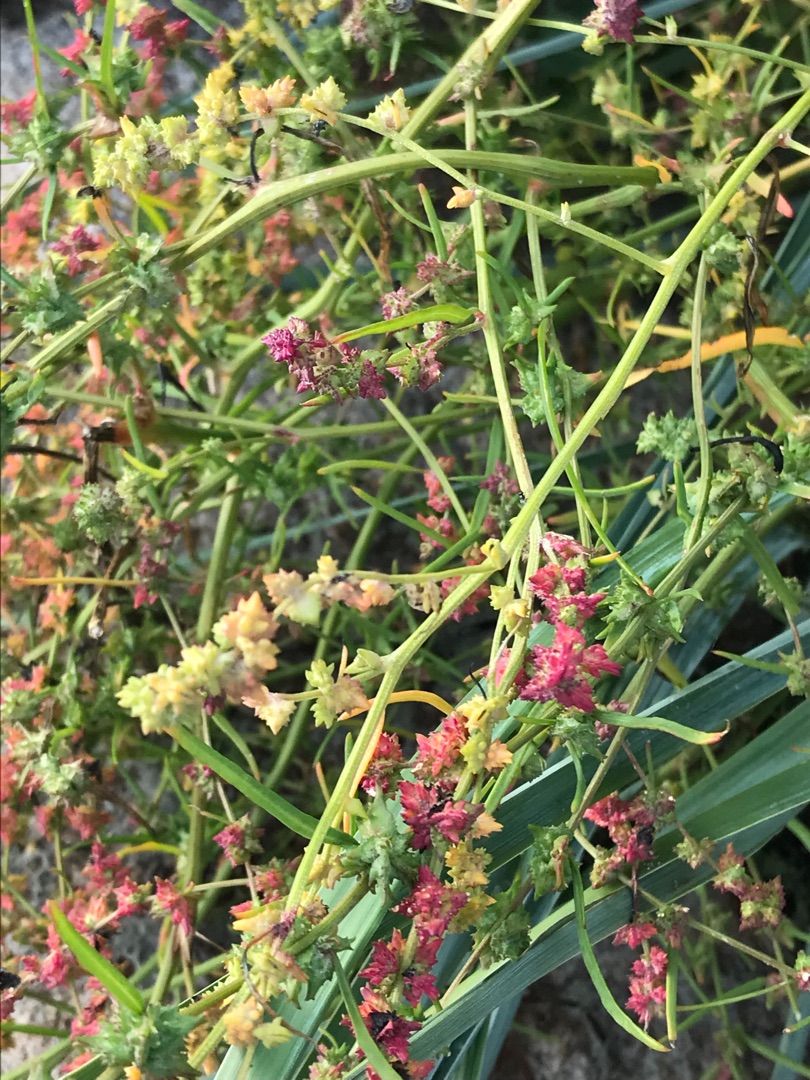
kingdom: Plantae
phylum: Tracheophyta
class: Magnoliopsida
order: Caryophyllales
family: Amaranthaceae
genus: Atriplex
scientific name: Atriplex littoralis
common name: Strand-mælde
